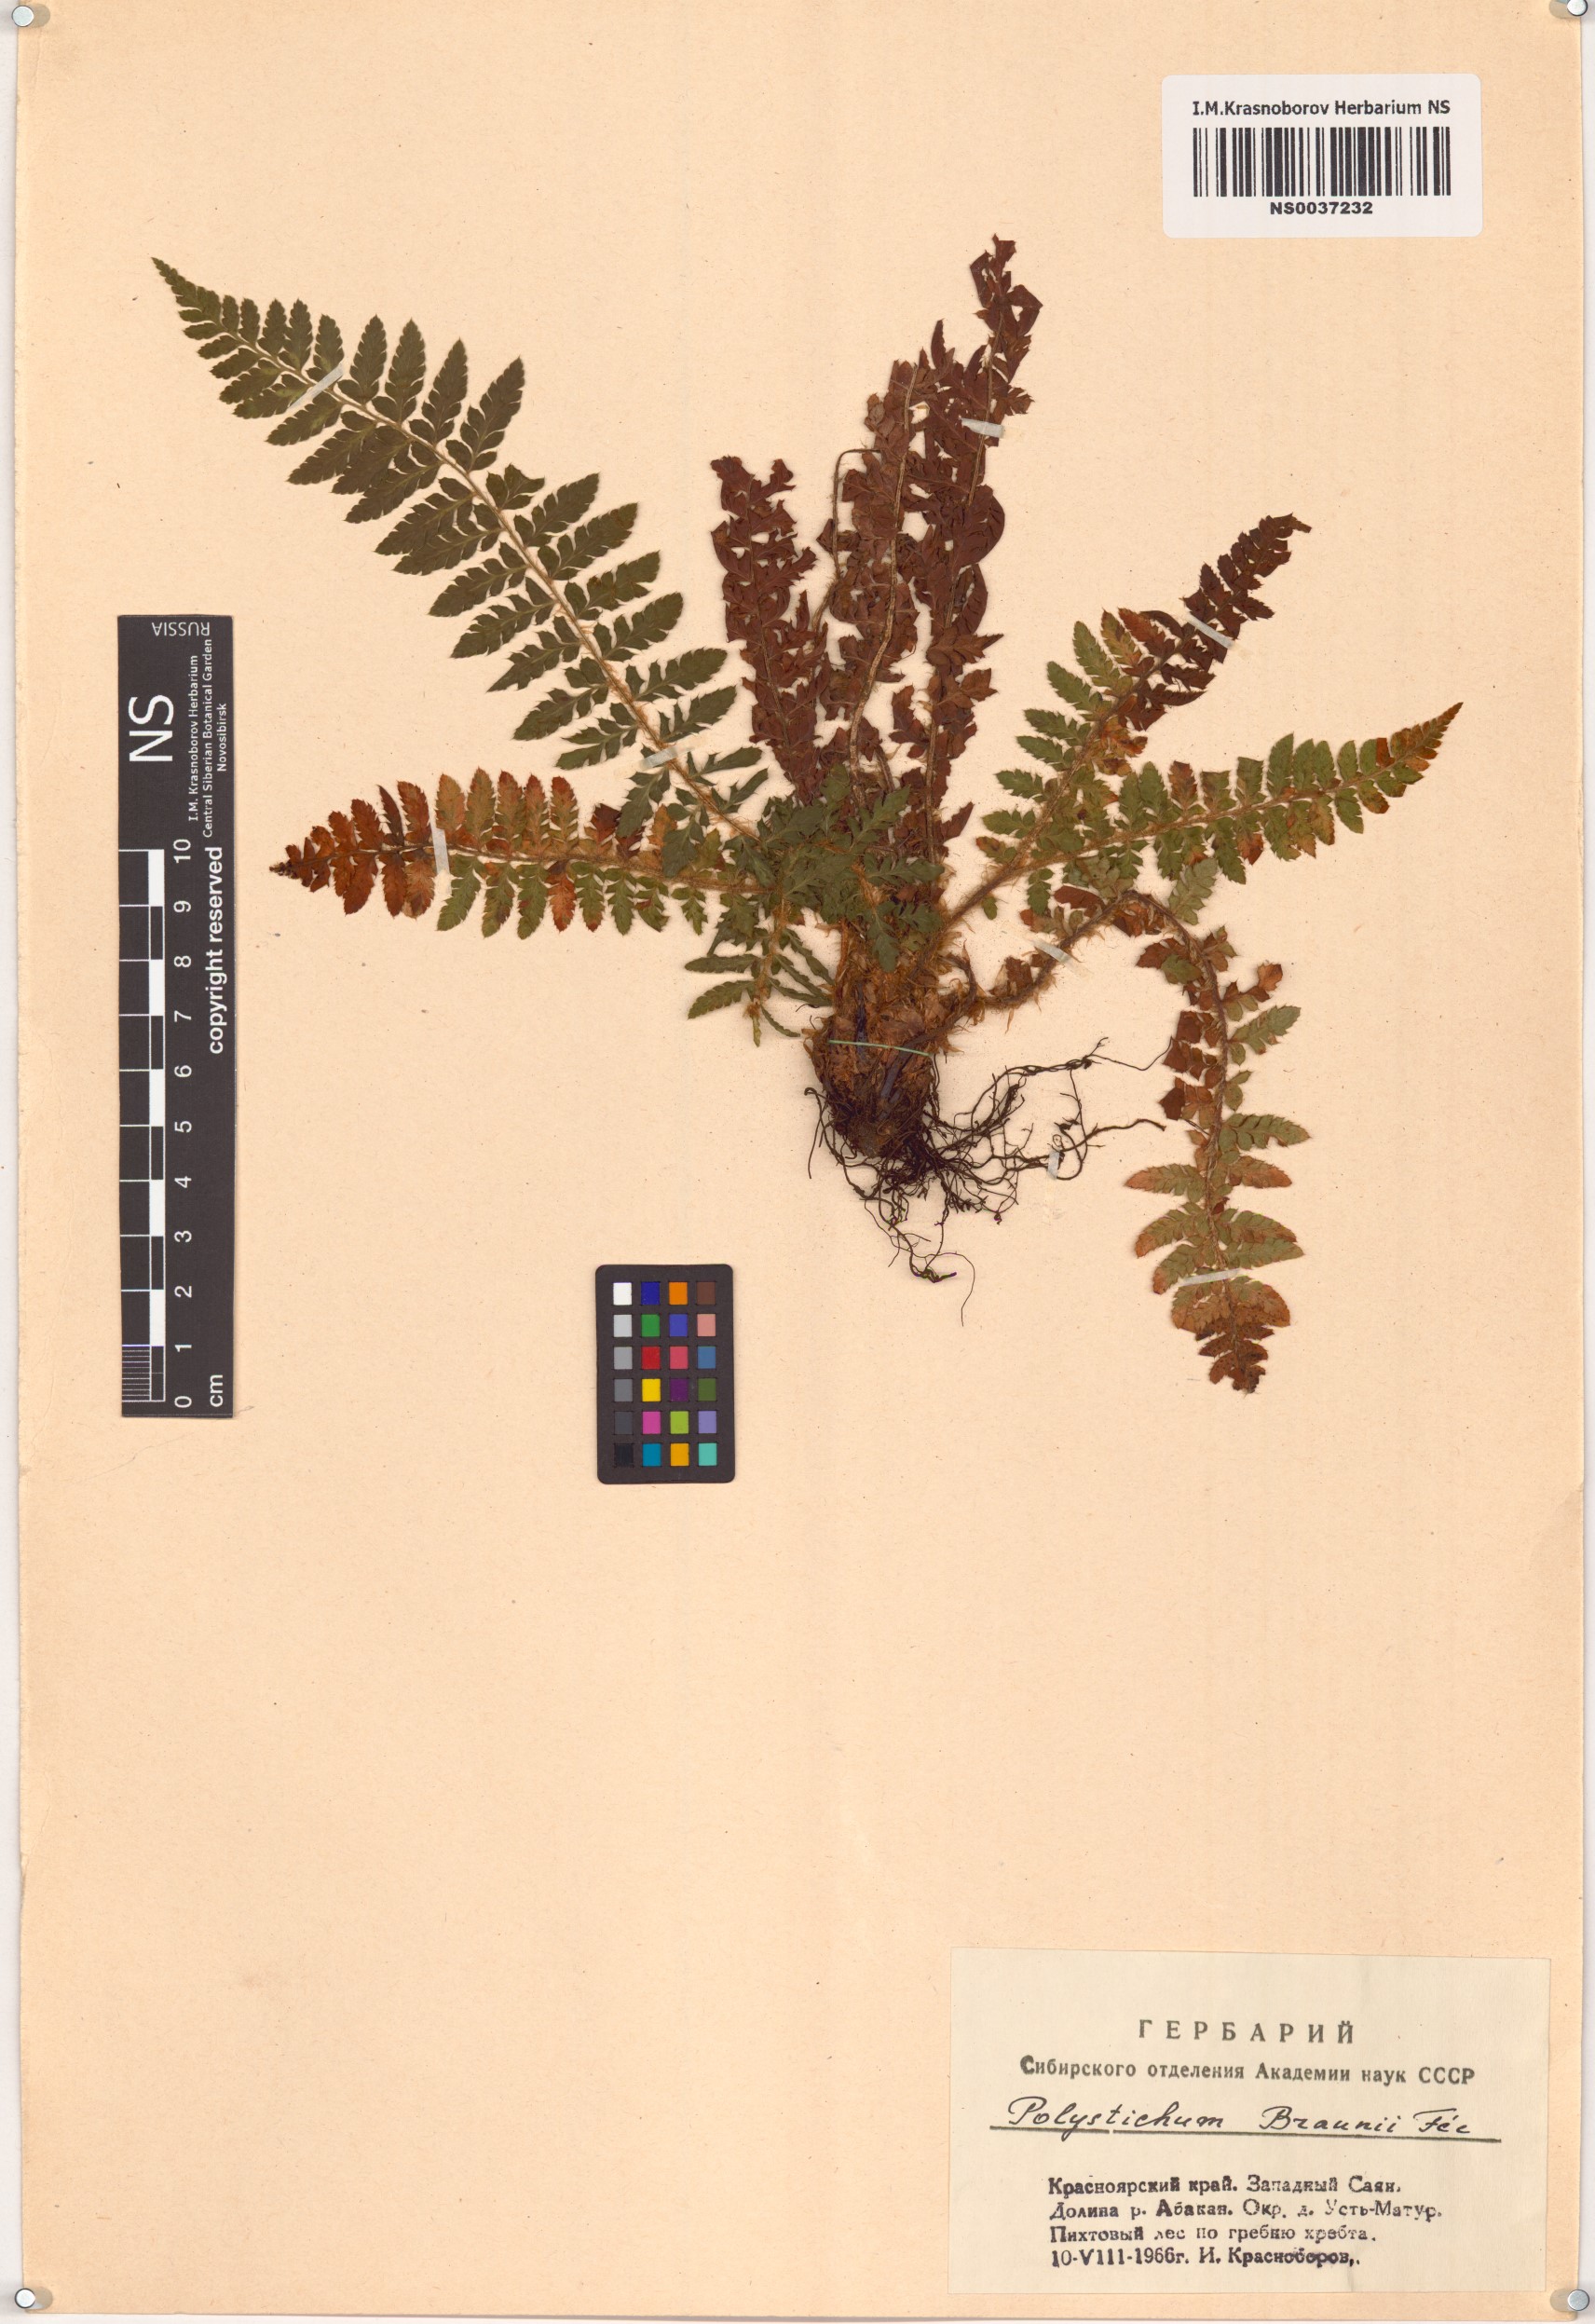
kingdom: Plantae
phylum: Tracheophyta
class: Polypodiopsida
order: Polypodiales
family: Dryopteridaceae
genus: Polystichum
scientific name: Polystichum braunii
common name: Braun's holly fern
